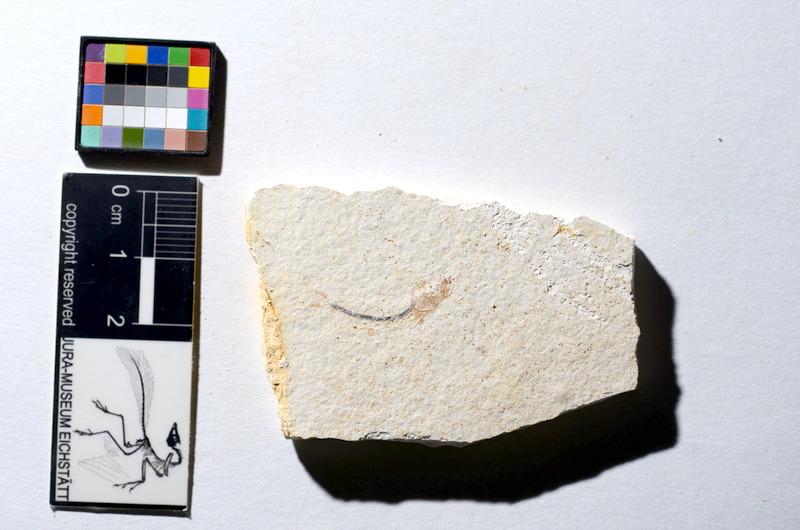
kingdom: Animalia
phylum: Chordata
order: Salmoniformes
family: Orthogonikleithridae
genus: Orthogonikleithrus
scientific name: Orthogonikleithrus hoelli
